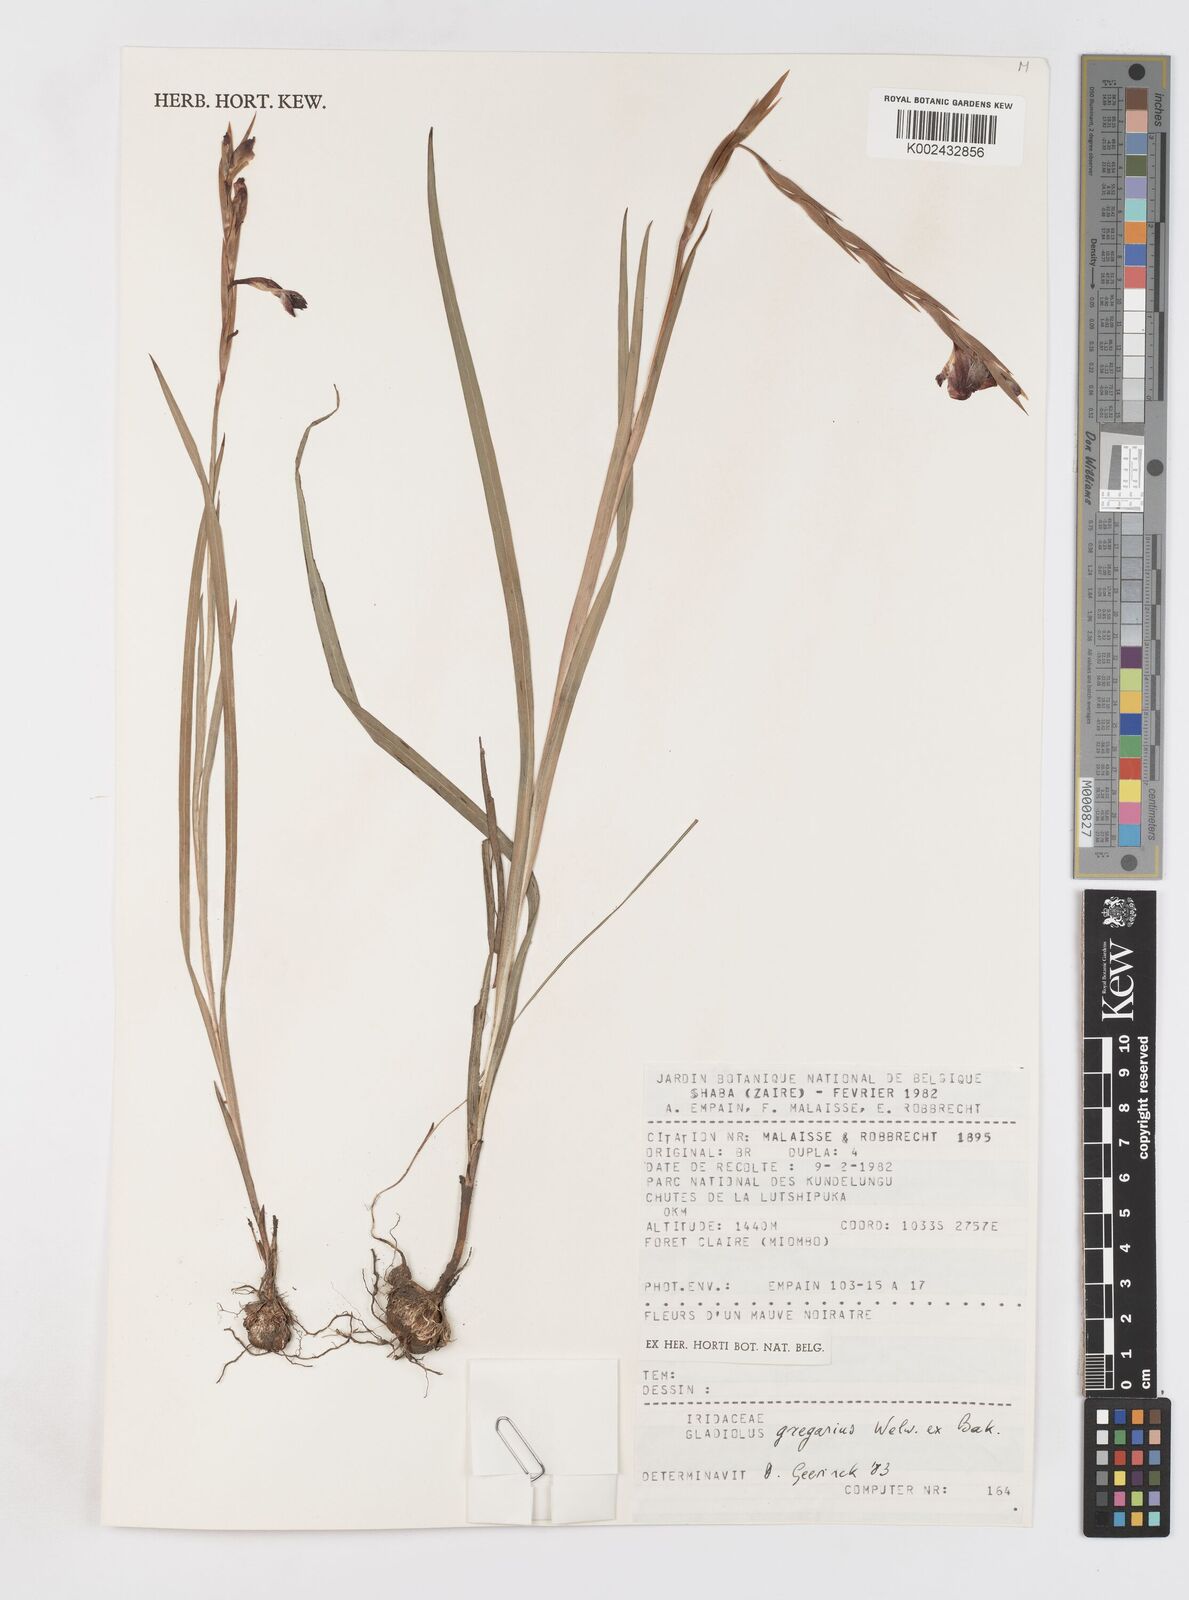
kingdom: Plantae
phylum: Tracheophyta
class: Liliopsida
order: Asparagales
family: Iridaceae
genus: Gladiolus
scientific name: Gladiolus gregarius
